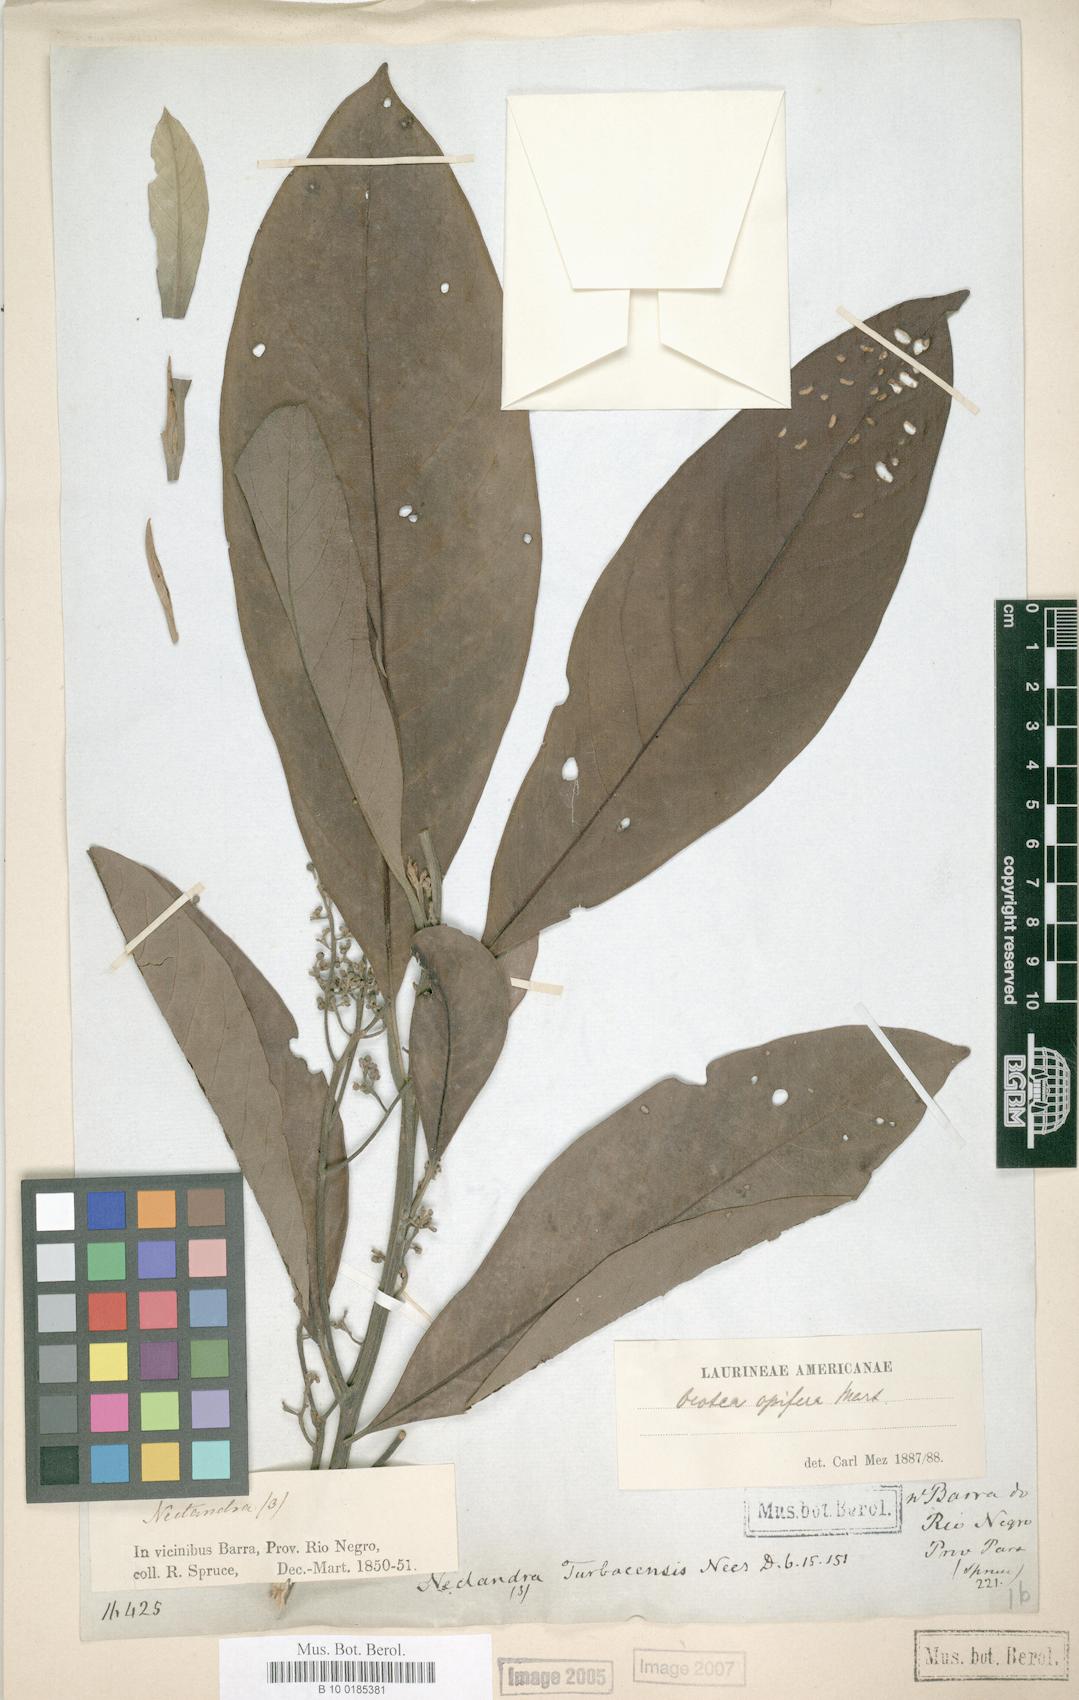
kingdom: Plantae
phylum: Tracheophyta
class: Magnoliopsida
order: Laurales
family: Lauraceae
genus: Mespilodaphne
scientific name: Mespilodaphne opifera
